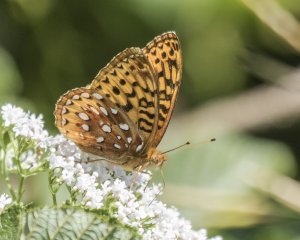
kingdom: Animalia
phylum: Arthropoda
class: Insecta
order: Lepidoptera
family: Nymphalidae
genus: Speyeria
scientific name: Speyeria cybele
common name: Great Spangled Fritillary
